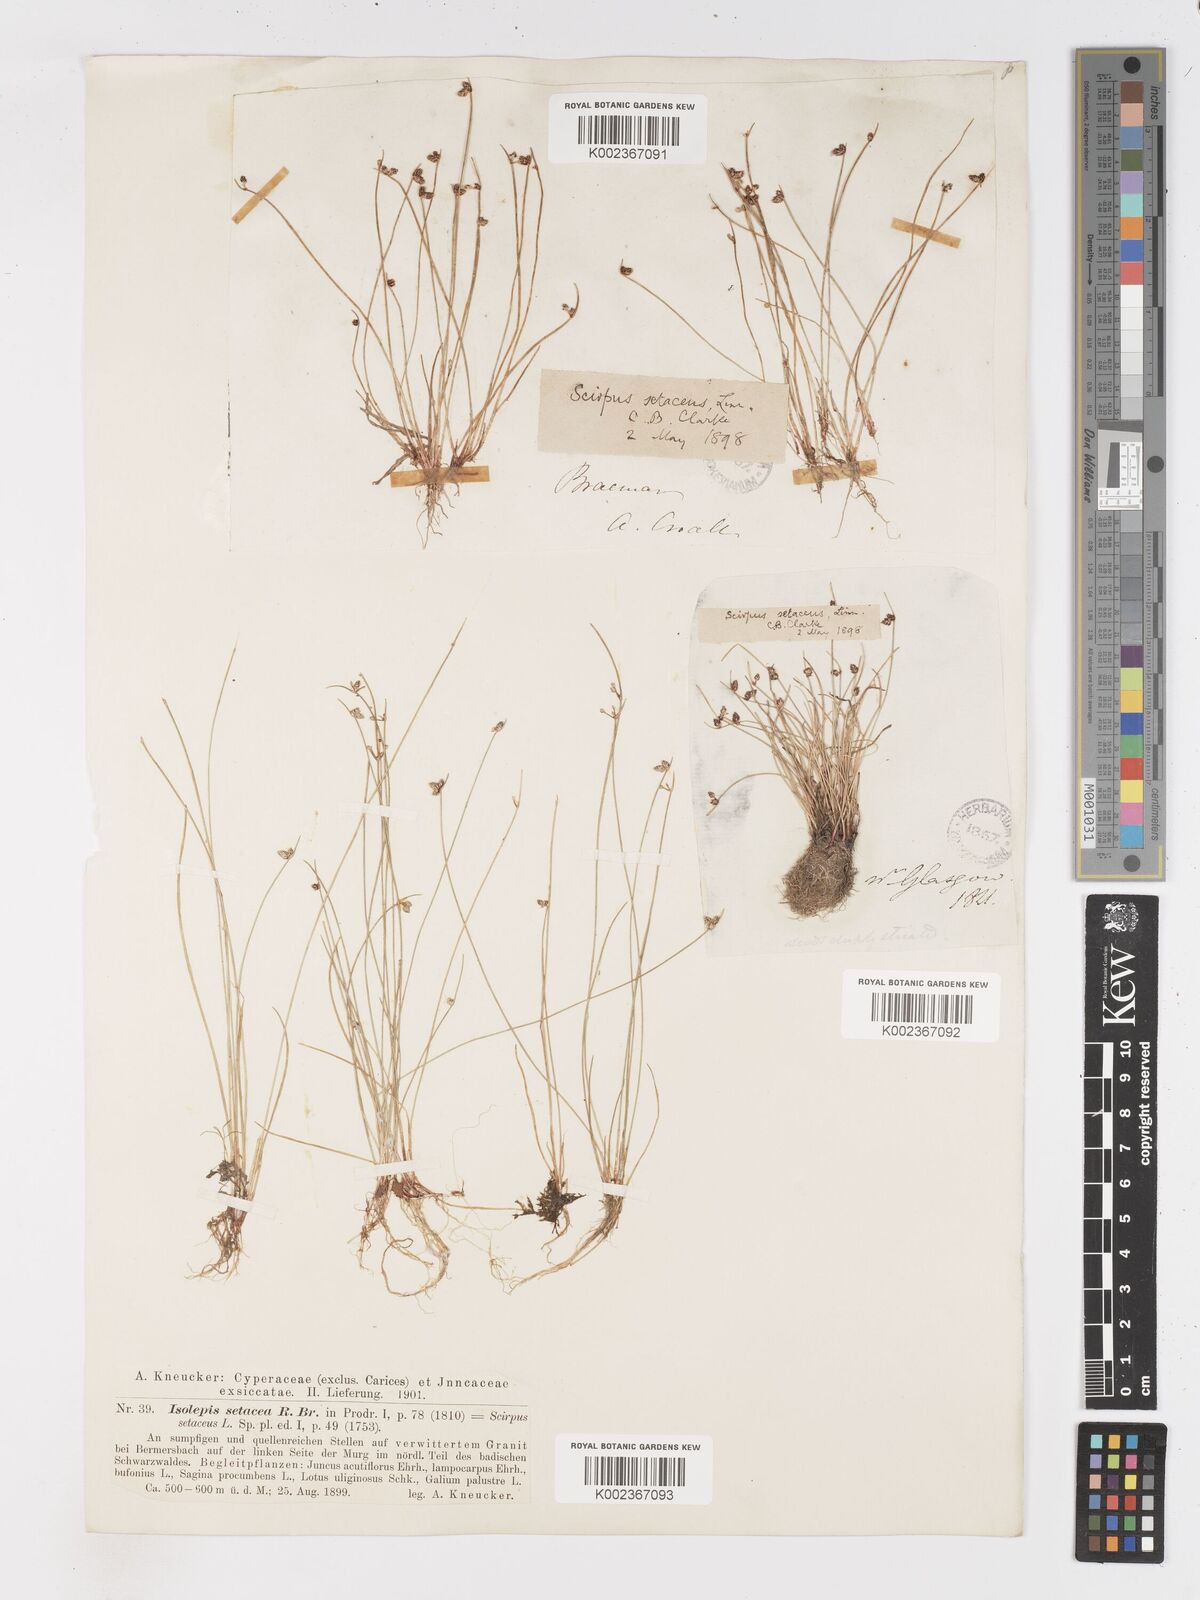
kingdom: Plantae
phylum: Tracheophyta
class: Liliopsida
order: Poales
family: Cyperaceae
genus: Isolepis
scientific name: Isolepis setacea
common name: Bristle club-rush
